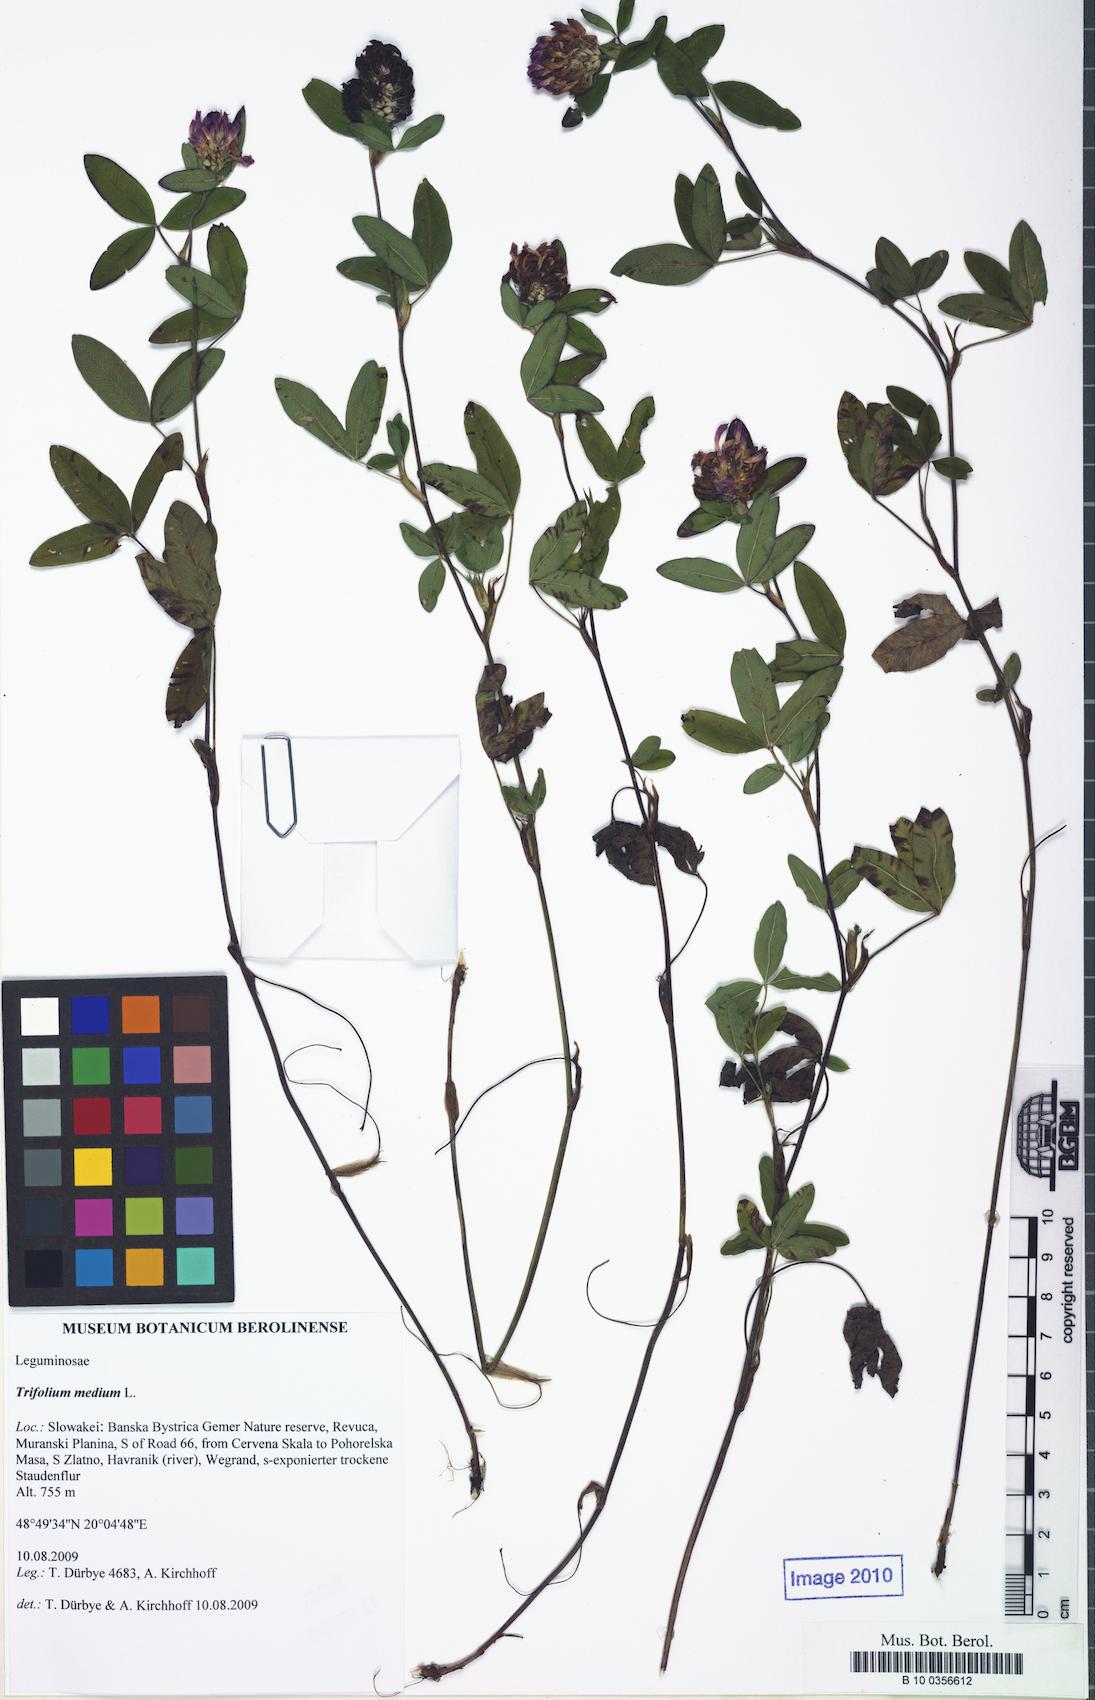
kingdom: Plantae
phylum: Tracheophyta
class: Magnoliopsida
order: Fabales
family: Fabaceae
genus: Trifolium
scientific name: Trifolium medium
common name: Zigzag clover
